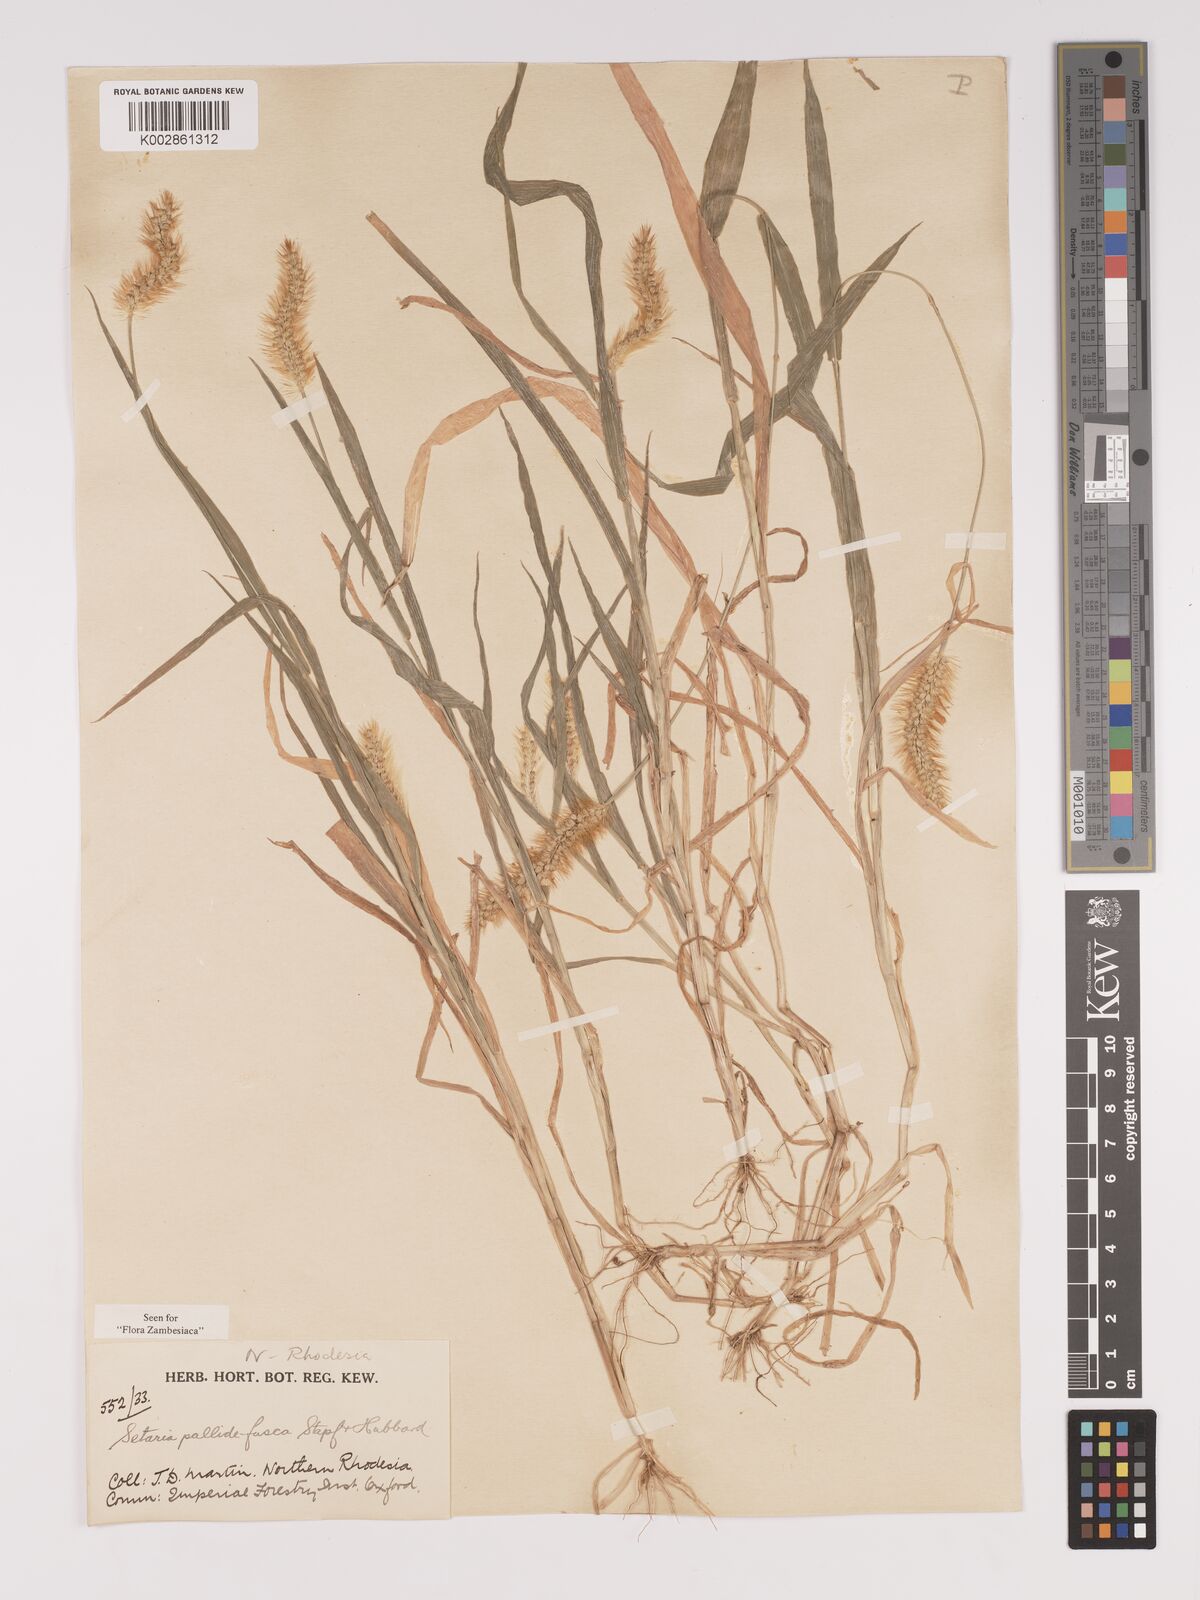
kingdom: Plantae
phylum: Tracheophyta
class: Liliopsida
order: Poales
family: Poaceae
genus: Setaria
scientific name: Setaria pumila
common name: Yellow bristle-grass
